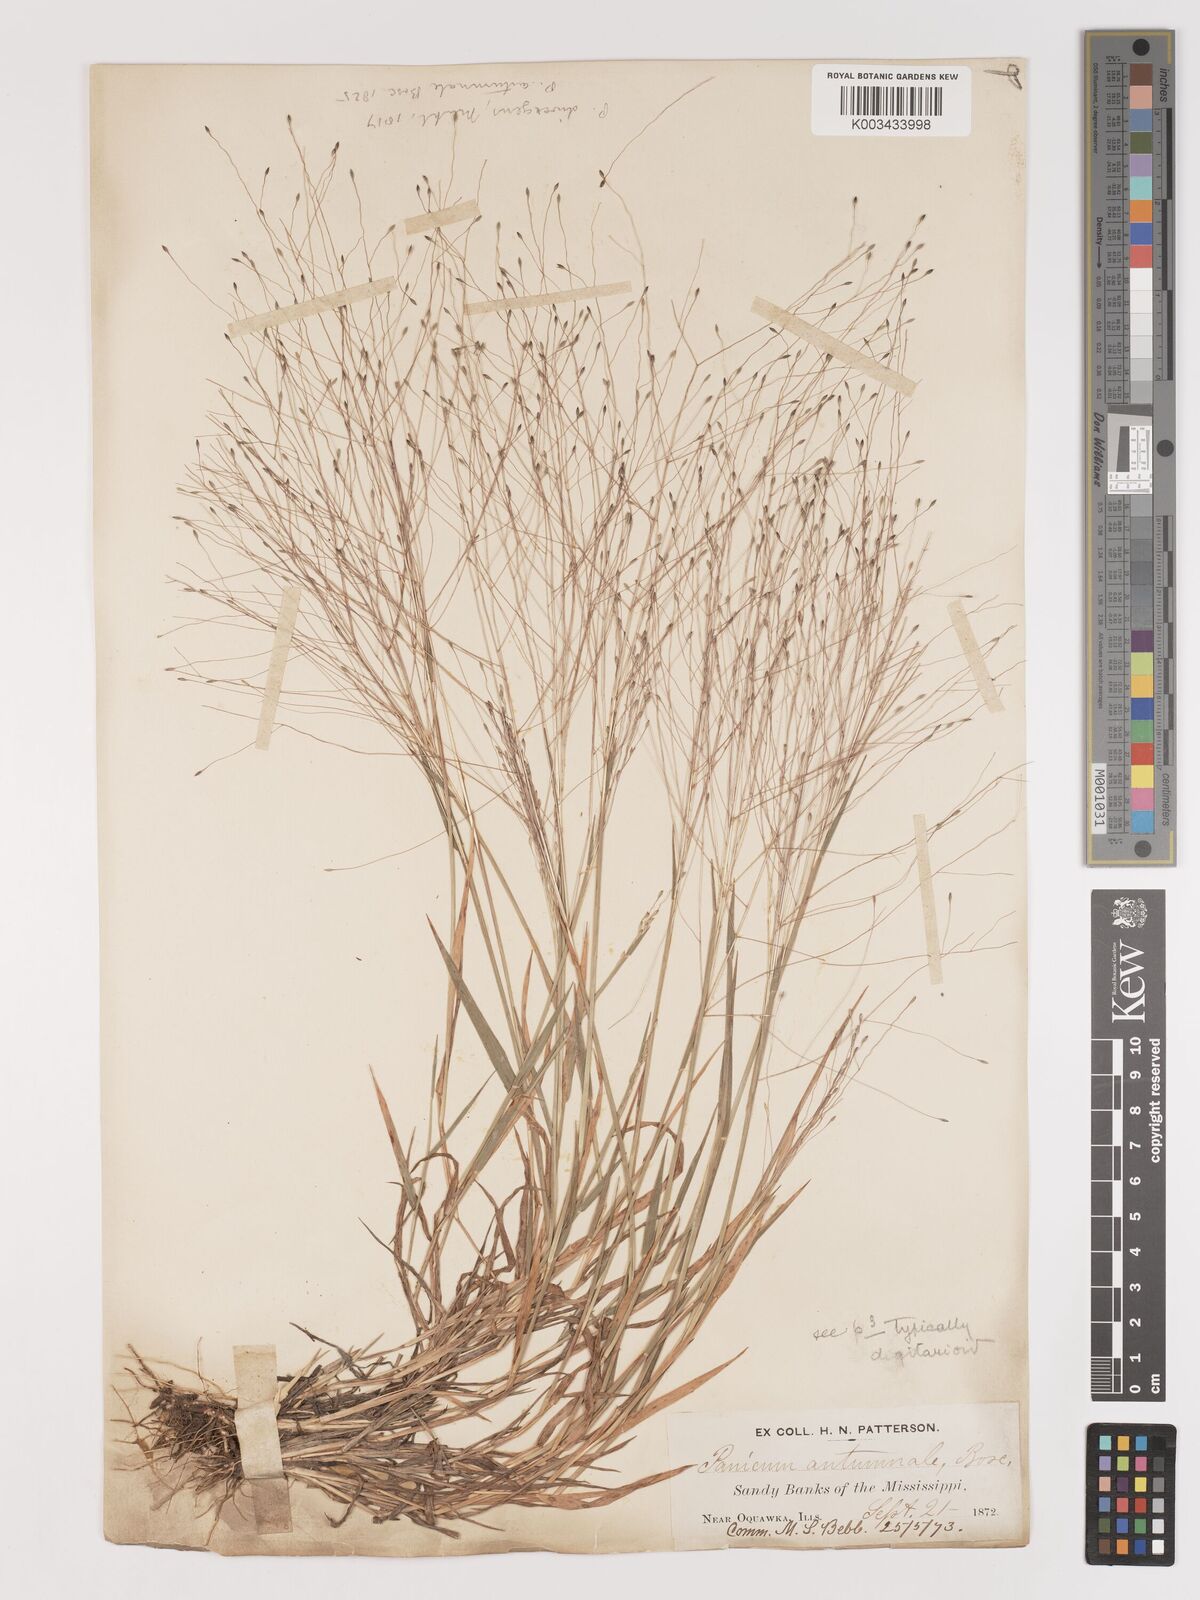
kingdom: Plantae
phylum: Tracheophyta
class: Liliopsida
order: Poales
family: Poaceae
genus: Digitaria
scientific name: Digitaria
